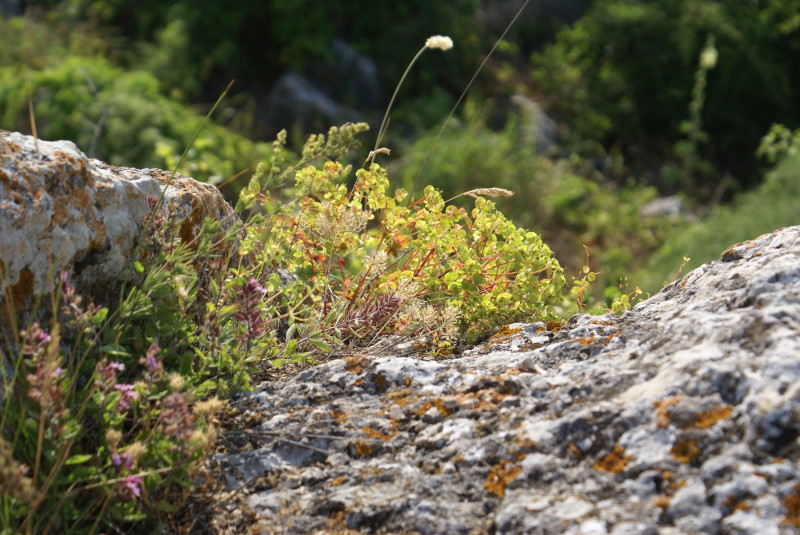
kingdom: Plantae
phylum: Tracheophyta
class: Magnoliopsida
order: Malpighiales
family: Euphorbiaceae
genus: Euphorbia
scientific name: Euphorbia petrophila
